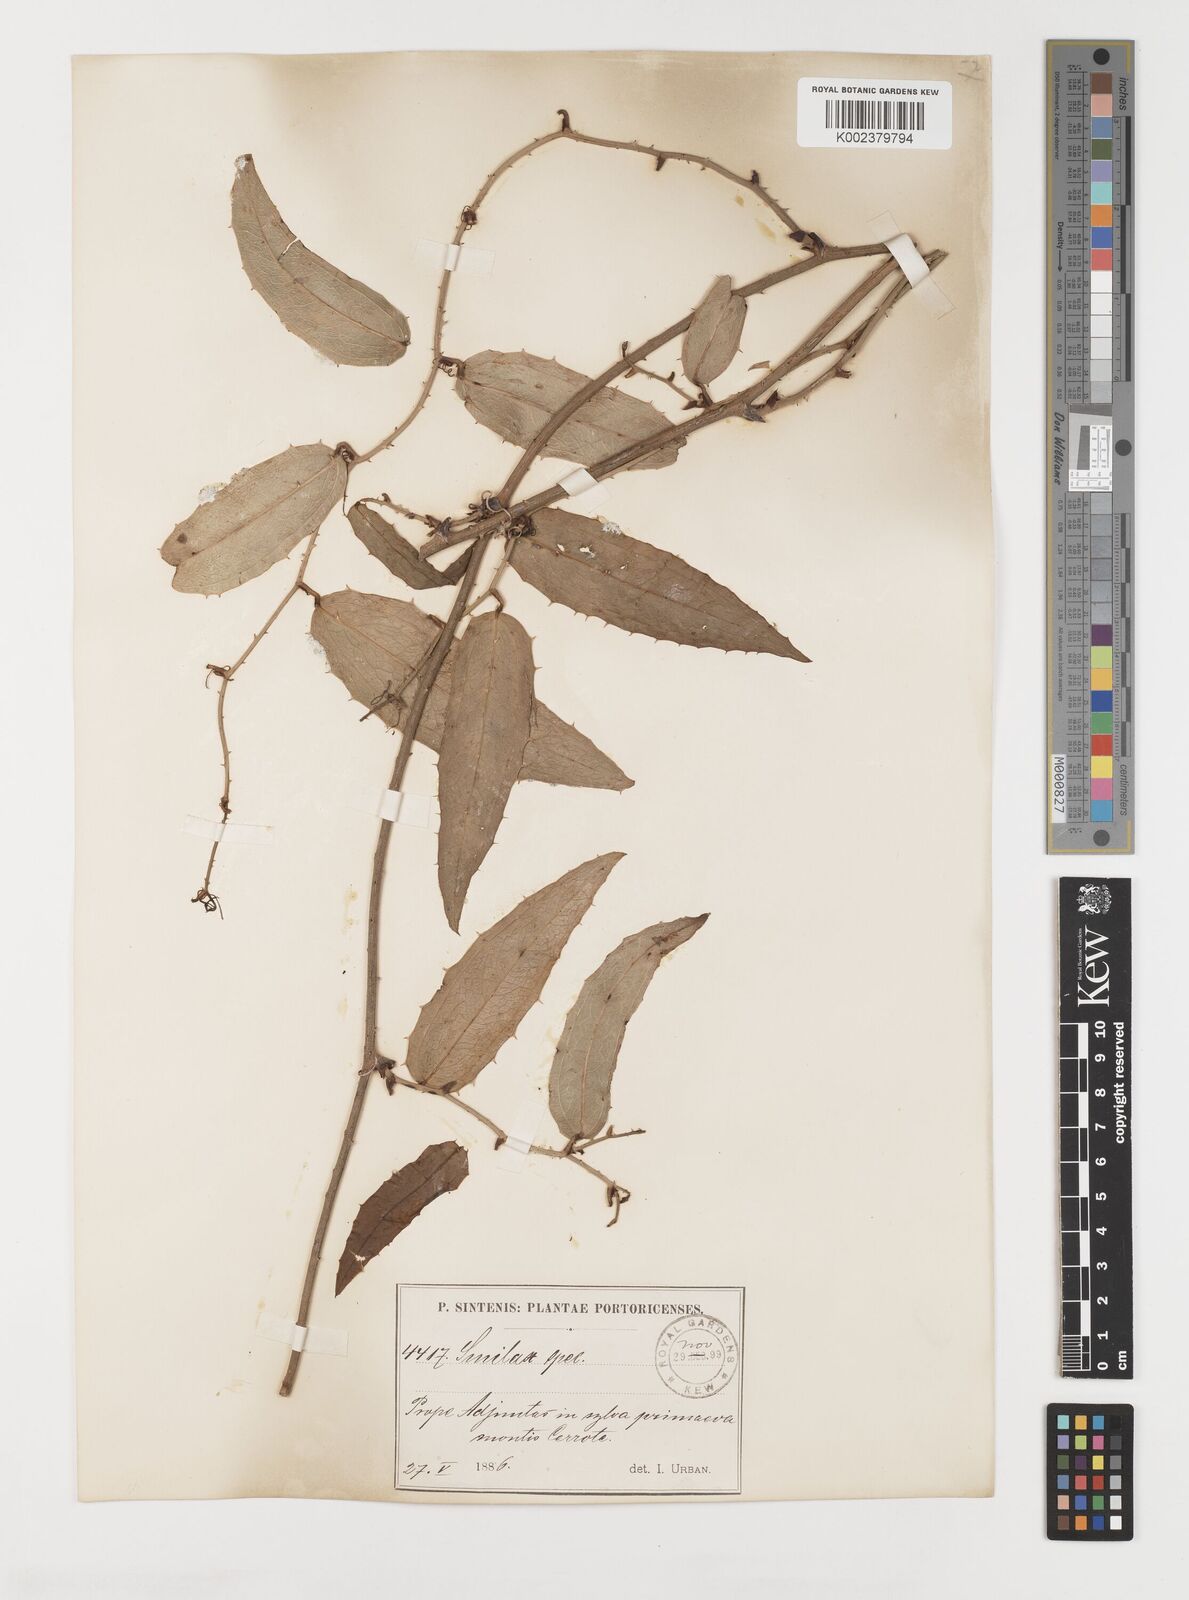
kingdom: Plantae
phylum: Tracheophyta
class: Liliopsida
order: Liliales
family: Smilacaceae
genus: Smilax
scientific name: Smilax lappacea
